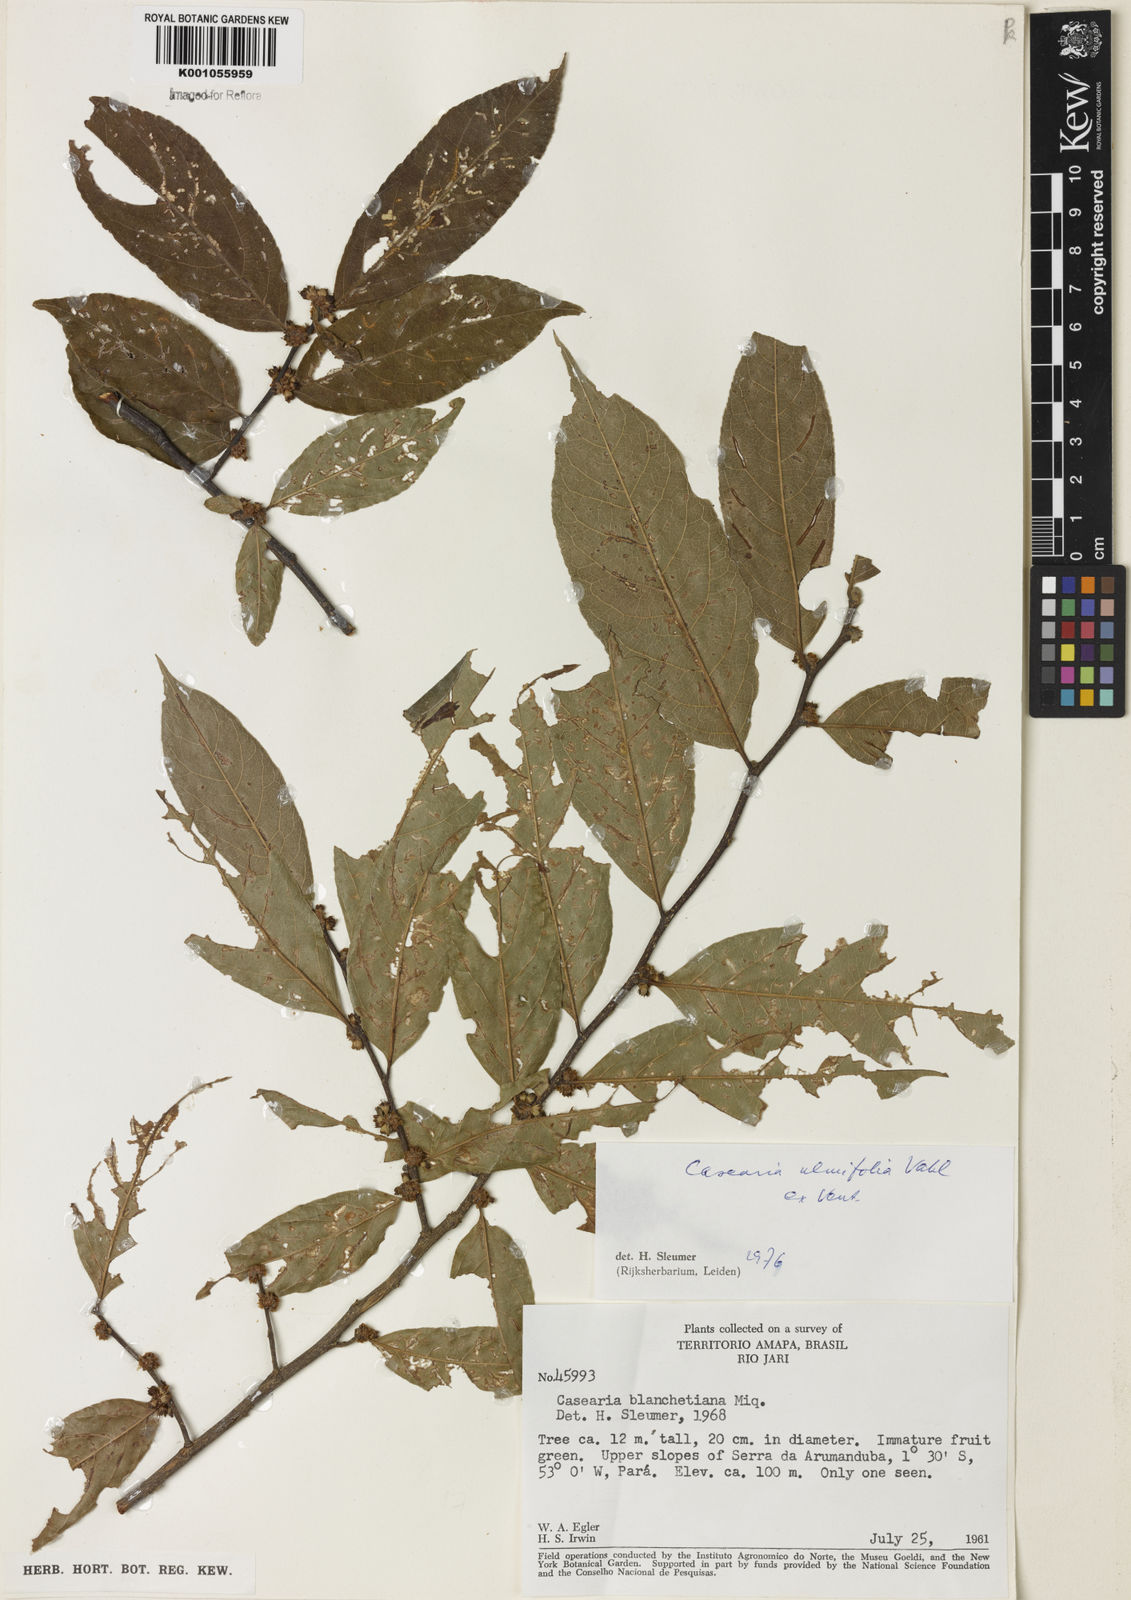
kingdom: Plantae
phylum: Tracheophyta
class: Magnoliopsida
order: Malpighiales
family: Salicaceae
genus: Casearia
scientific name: Casearia ulmifolia
